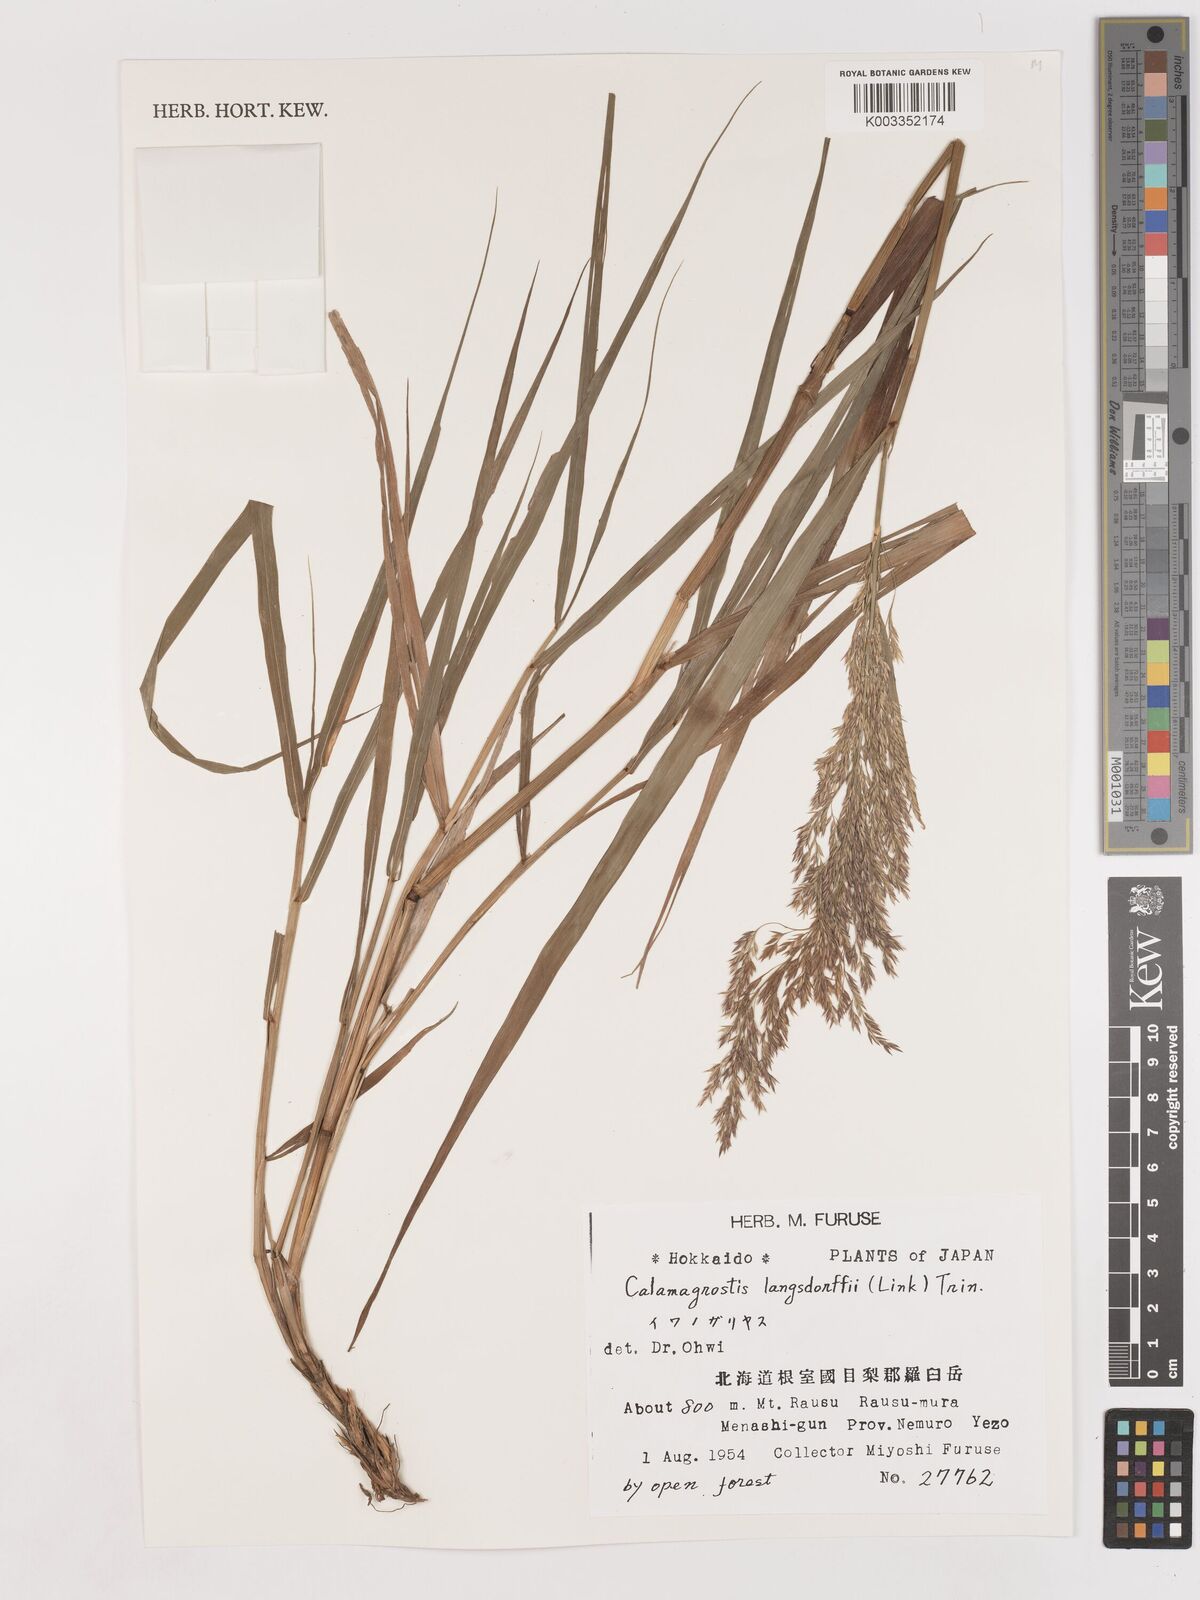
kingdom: Plantae
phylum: Tracheophyta
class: Liliopsida
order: Poales
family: Poaceae
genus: Calamagrostis
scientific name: Calamagrostis purpurea
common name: Scandinavian small-reed
